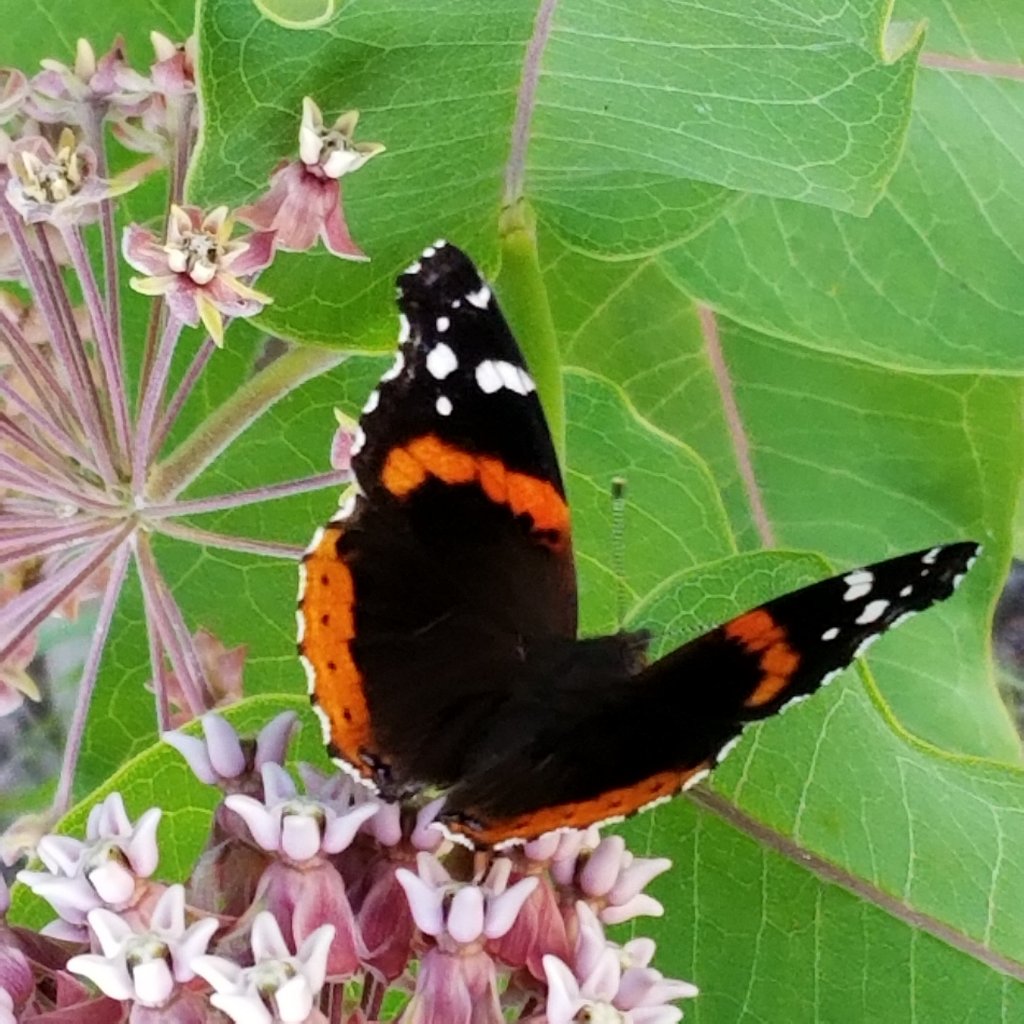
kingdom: Animalia
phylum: Arthropoda
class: Insecta
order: Lepidoptera
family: Nymphalidae
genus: Vanessa
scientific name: Vanessa atalanta
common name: Red Admiral
